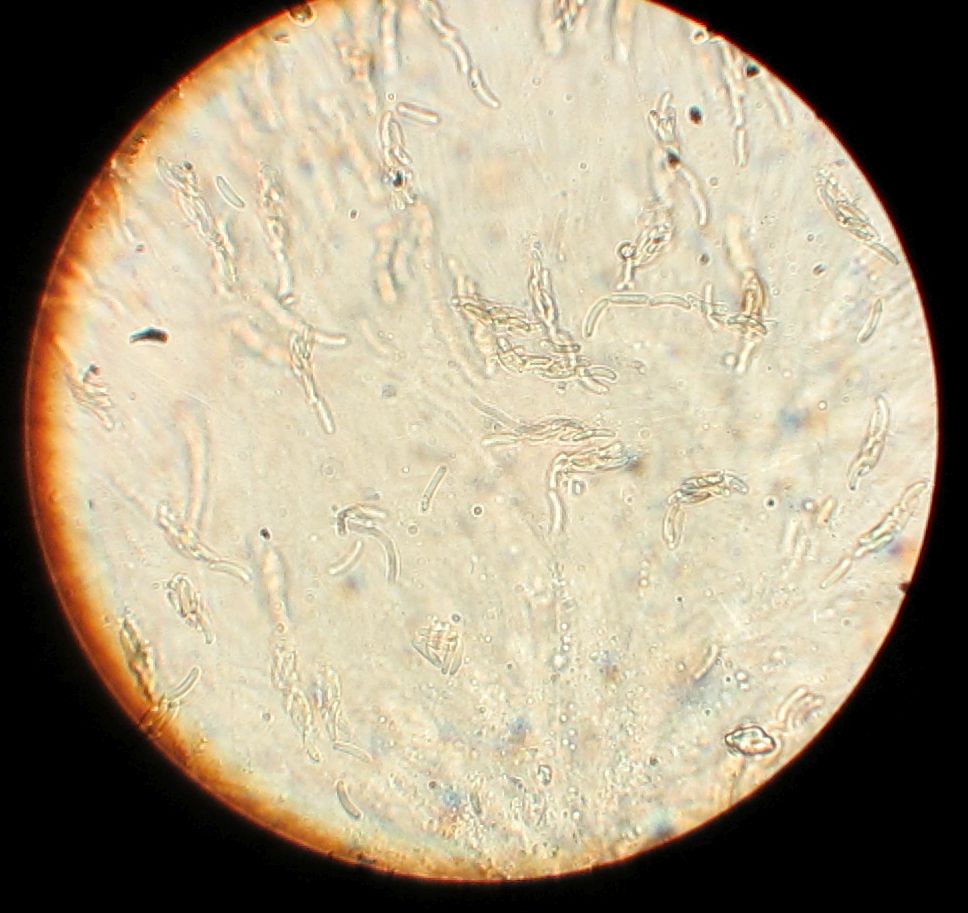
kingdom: Fungi
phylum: Ascomycota
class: Sordariomycetes
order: Xylariales
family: Diatrypaceae
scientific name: Diatrypaceae
